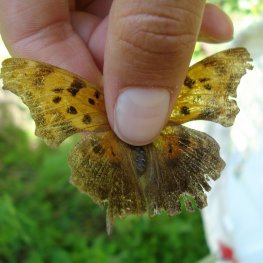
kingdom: Animalia
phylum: Arthropoda
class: Insecta
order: Lepidoptera
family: Nymphalidae
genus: Polygonia
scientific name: Polygonia interrogationis
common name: Question Mark
